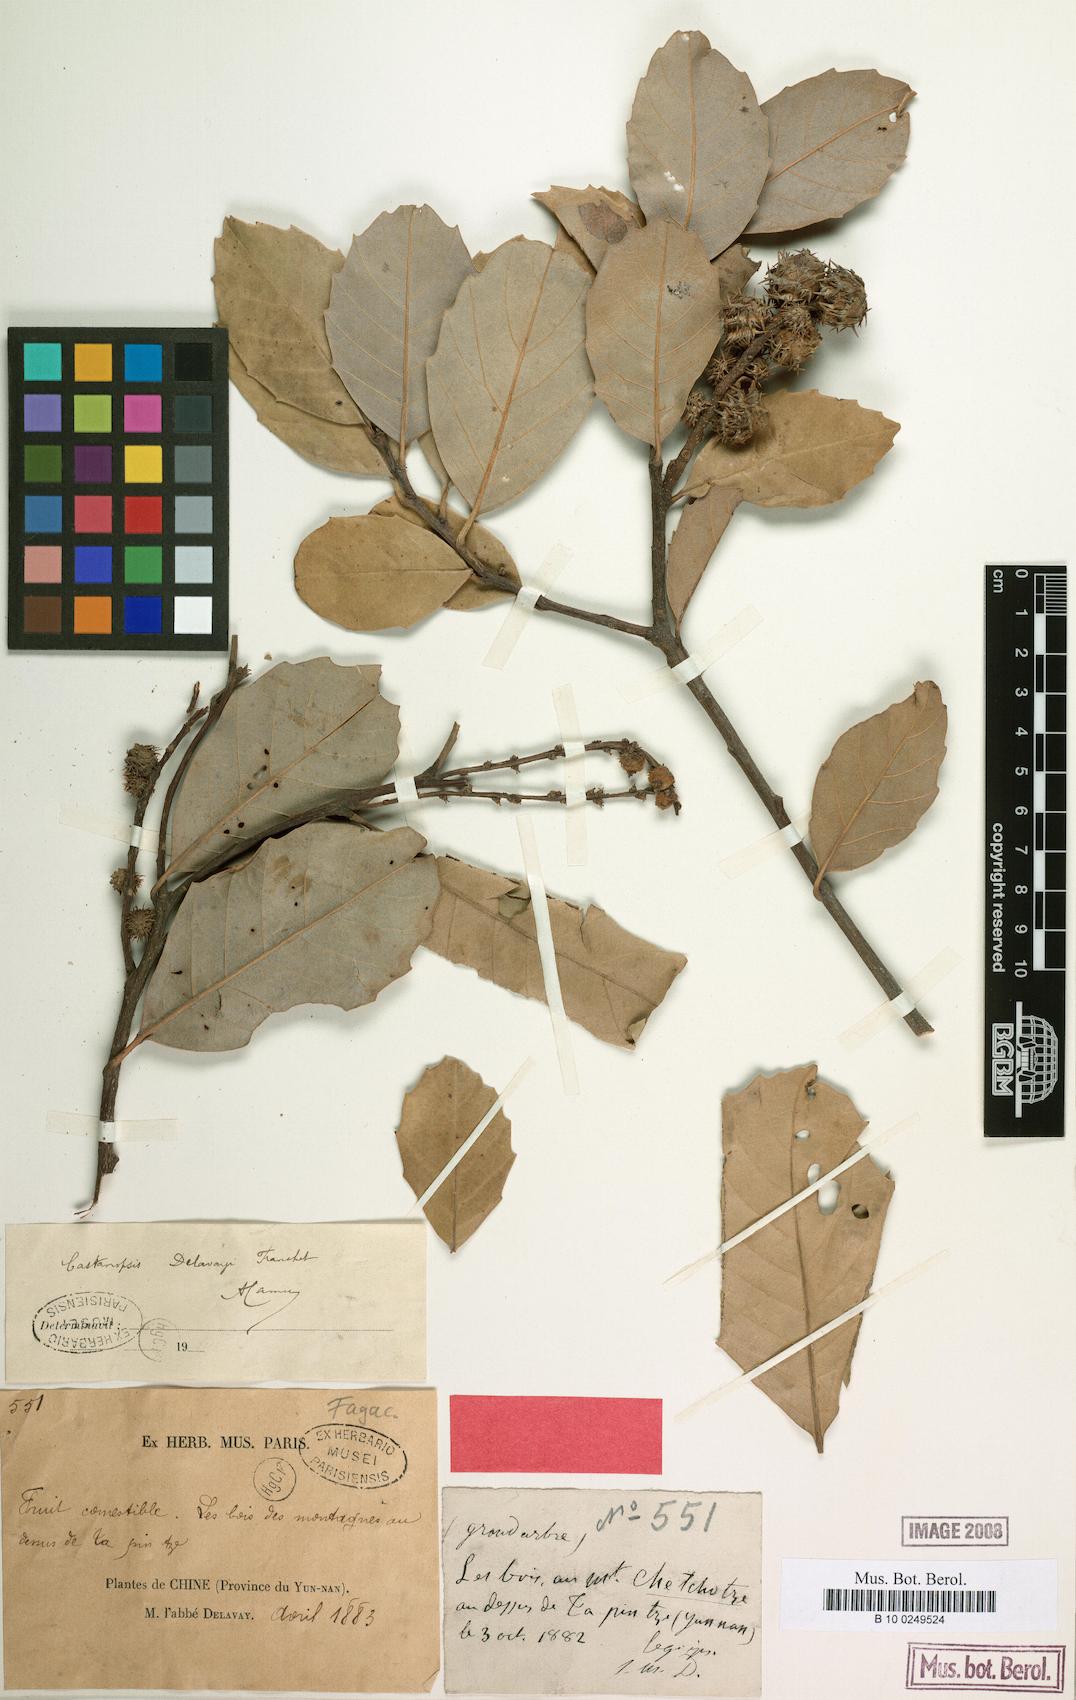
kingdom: Plantae
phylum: Tracheophyta
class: Magnoliopsida
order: Fagales
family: Fagaceae
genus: Castanopsis
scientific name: Castanopsis delavayi
